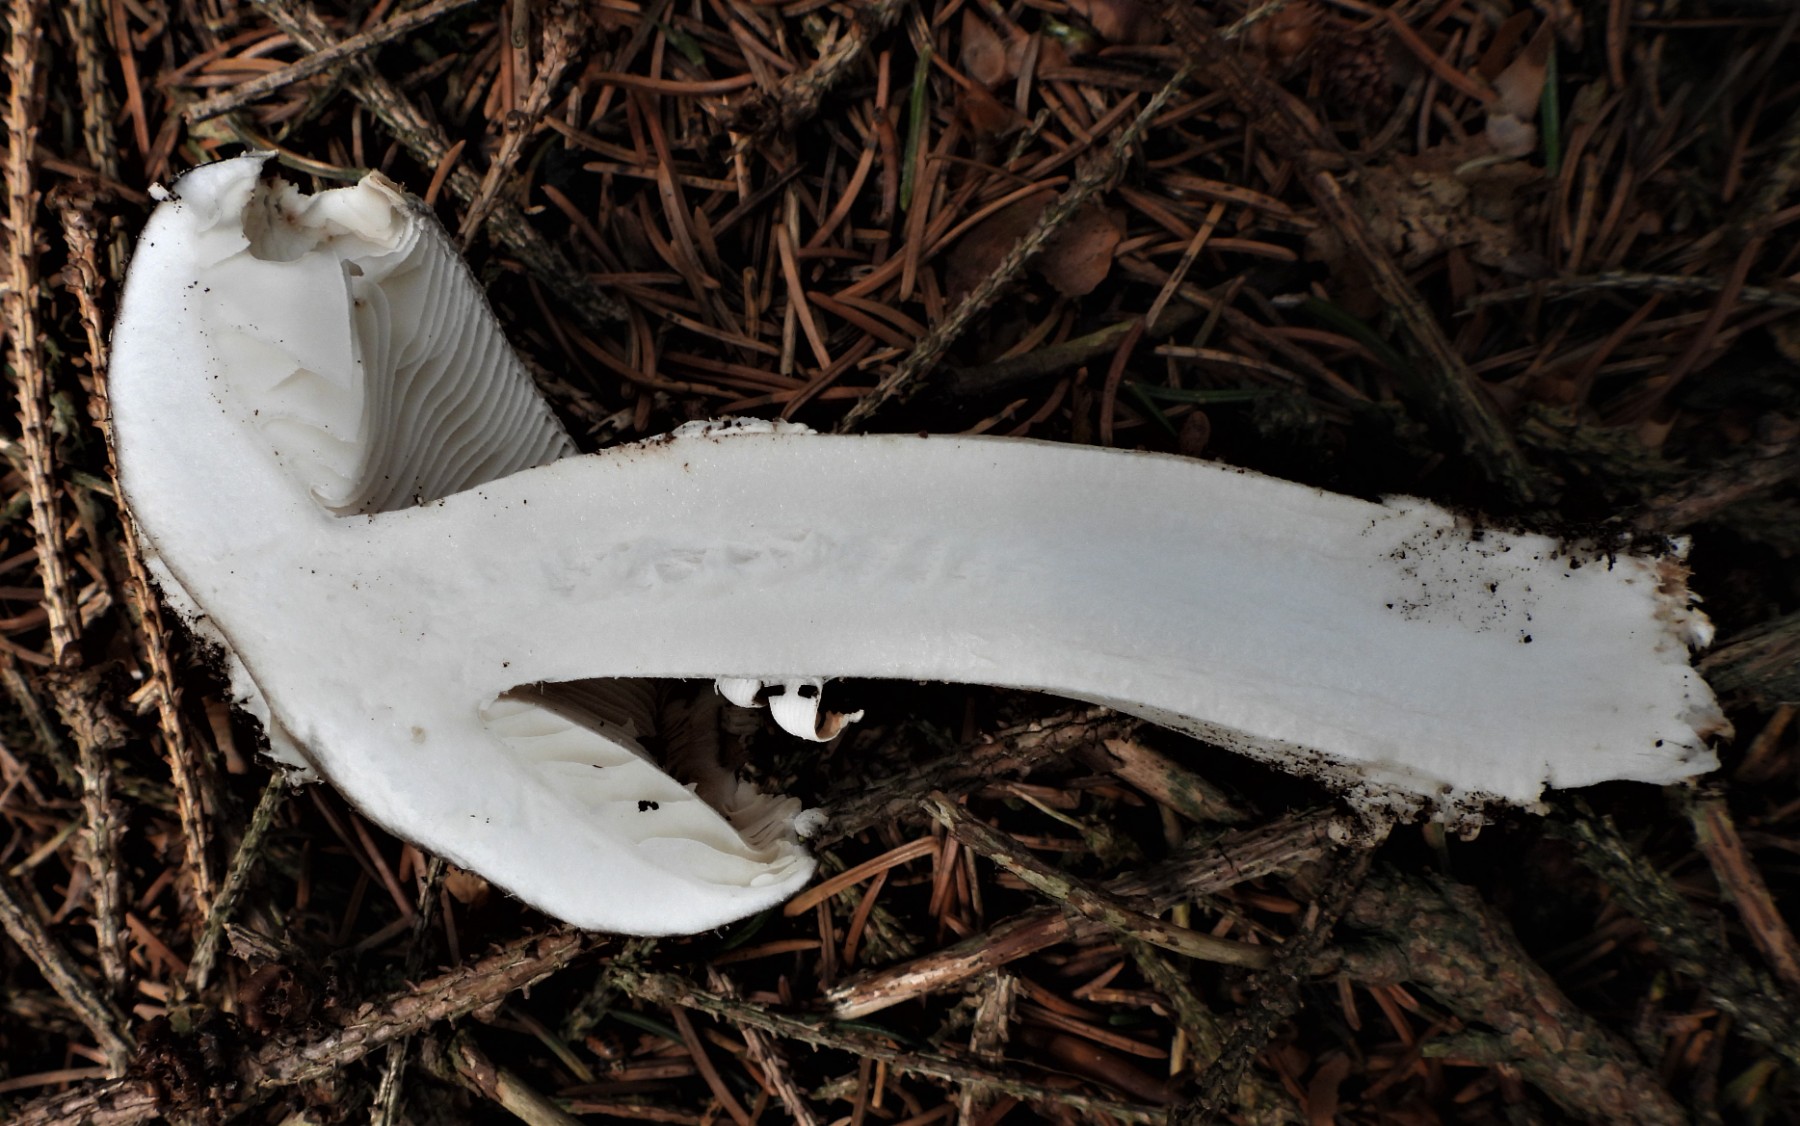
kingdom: Fungi
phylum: Basidiomycota
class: Agaricomycetes
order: Agaricales
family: Amanitaceae
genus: Amanita
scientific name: Amanita pantherina
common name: panter-fluesvamp
